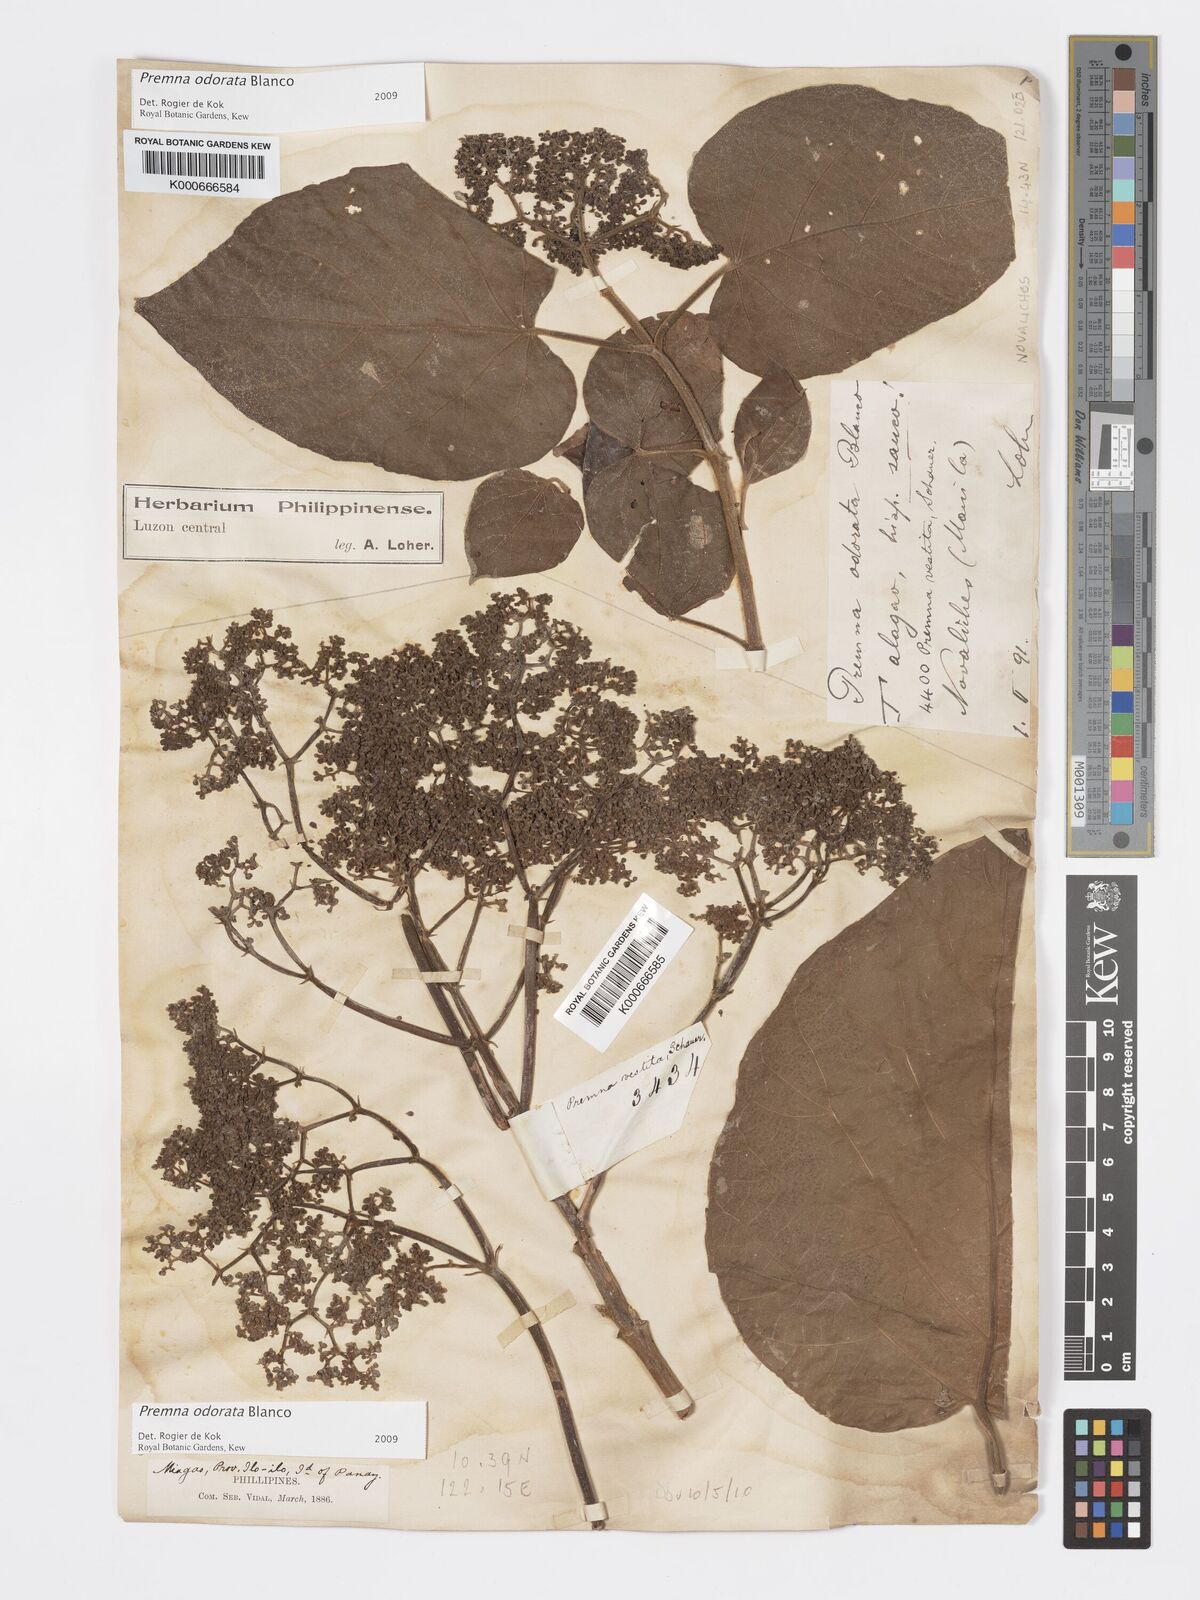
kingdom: Plantae
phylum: Tracheophyta
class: Magnoliopsida
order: Lamiales
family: Lamiaceae
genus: Premna
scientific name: Premna odorata
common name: Fragrant premna
